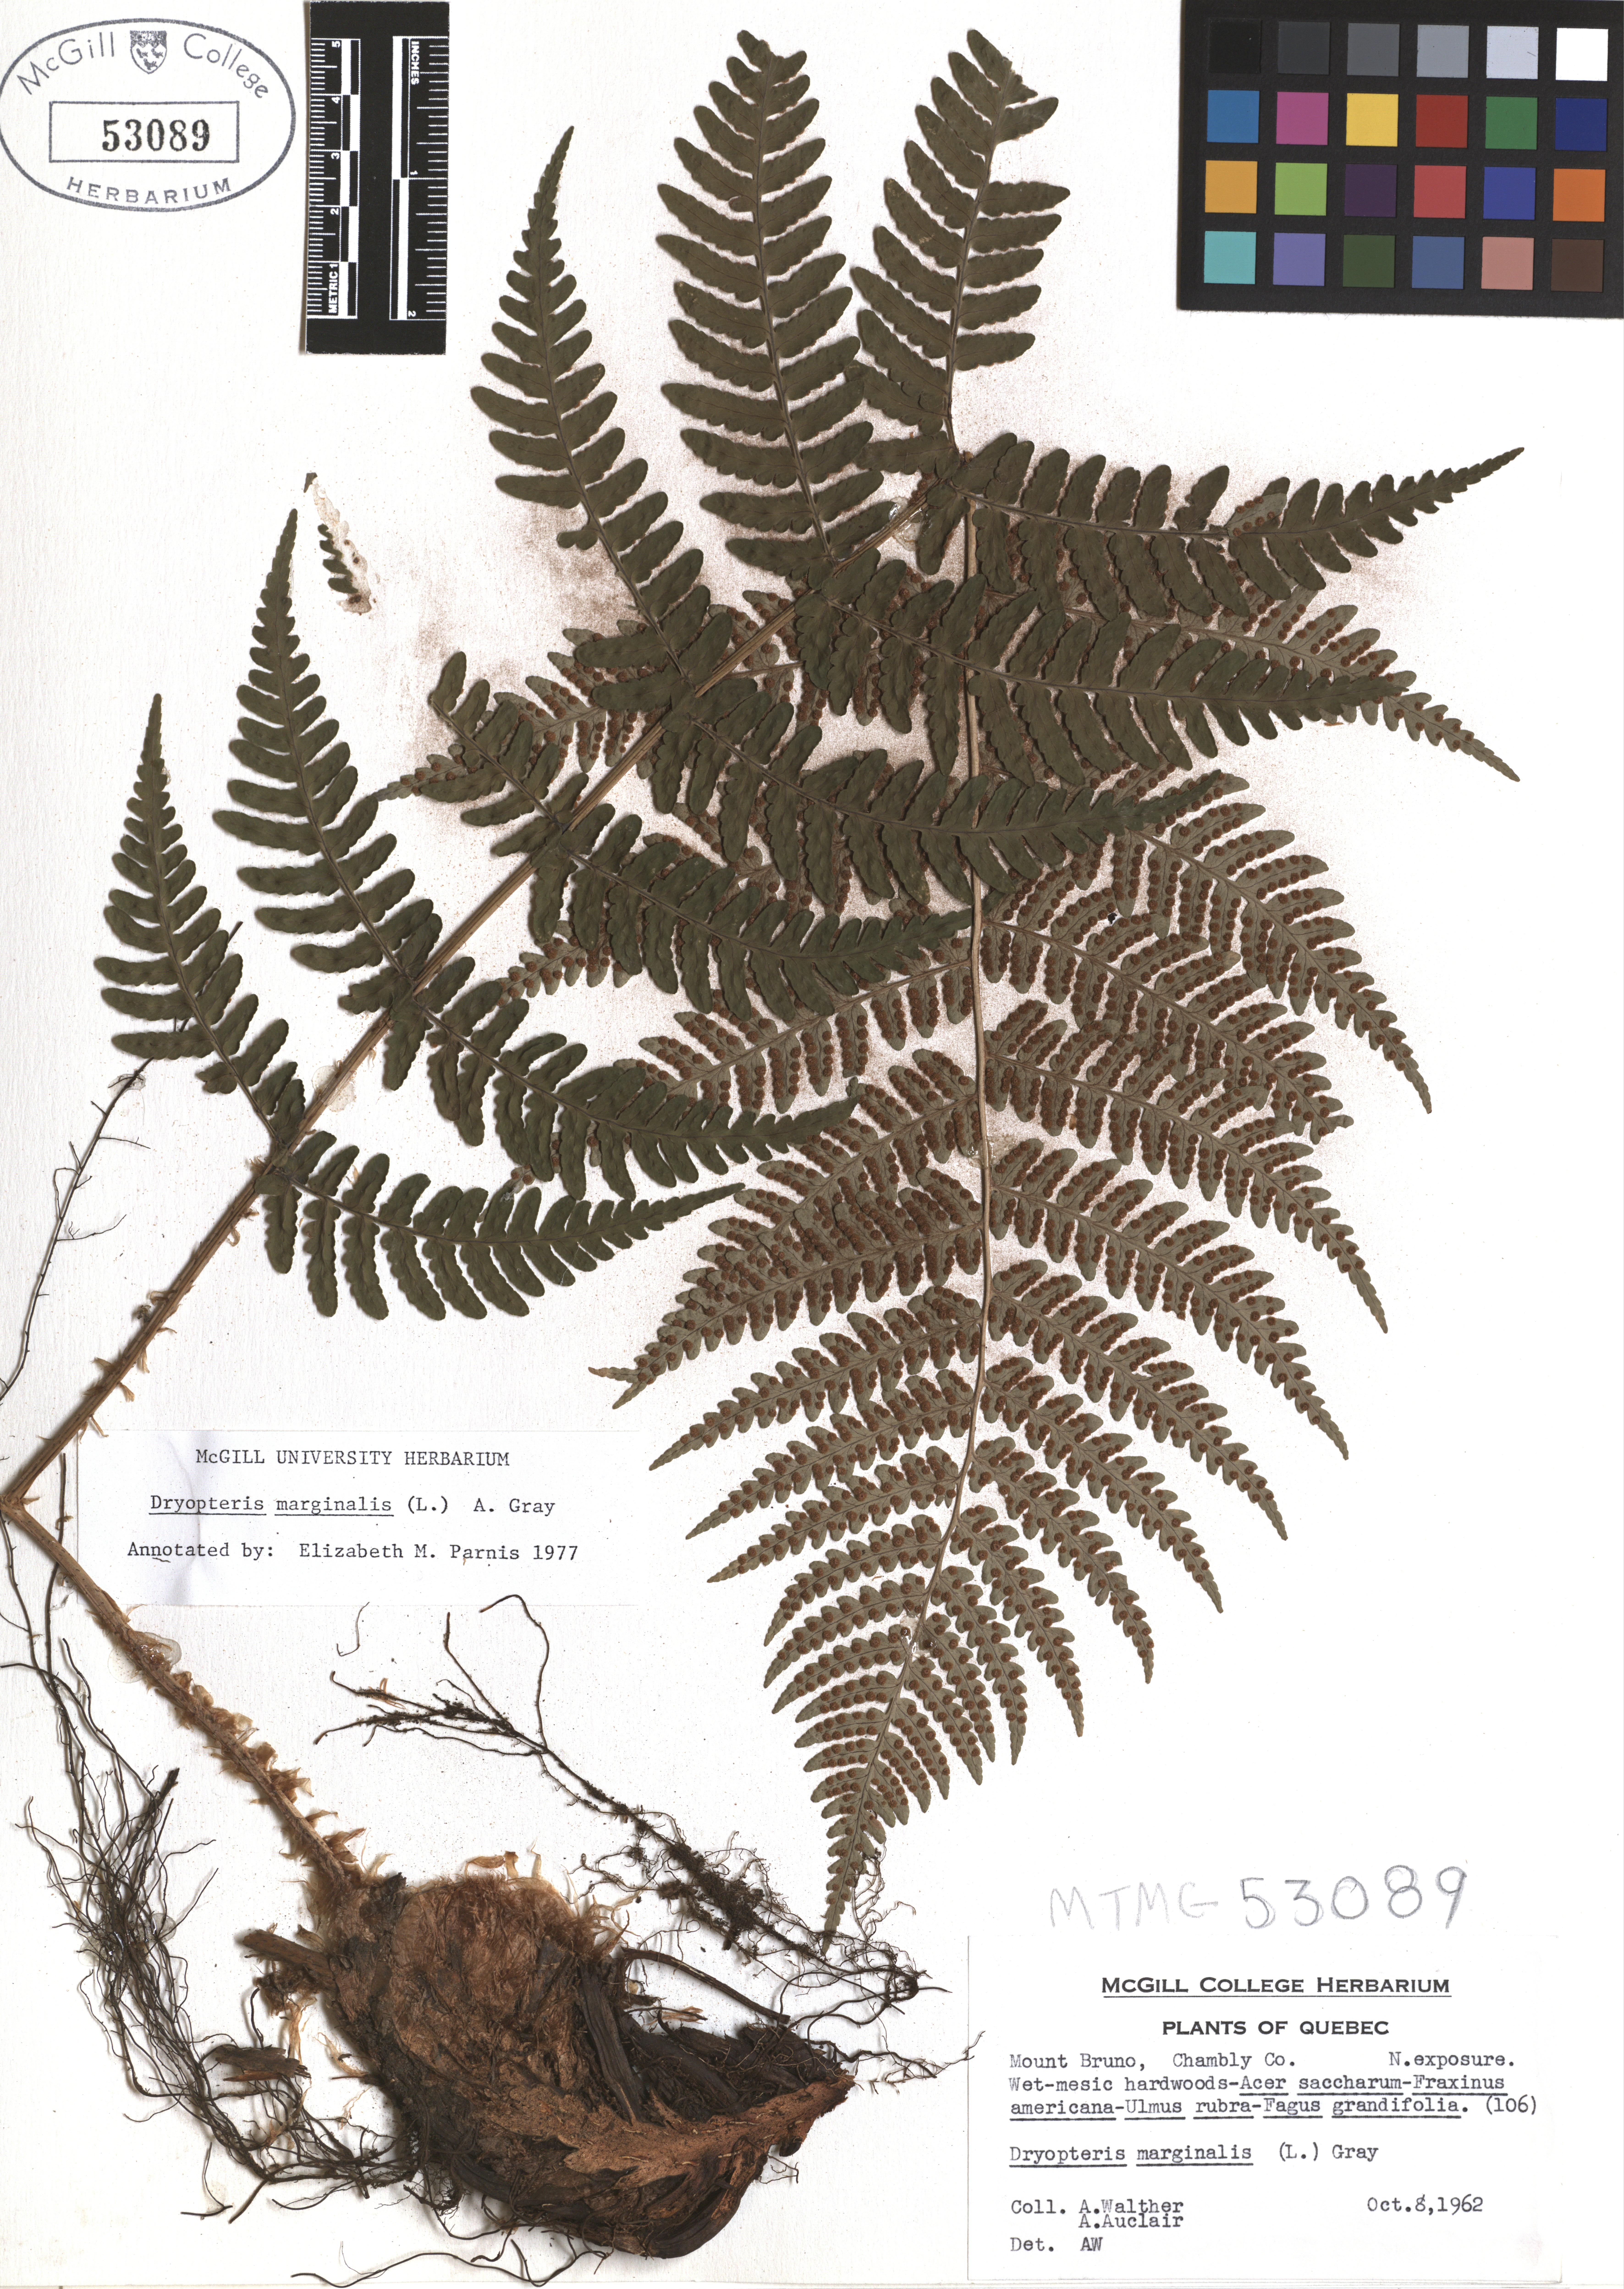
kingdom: Plantae
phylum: Tracheophyta
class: Polypodiopsida
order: Polypodiales
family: Dryopteridaceae
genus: Dryopteris
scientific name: Dryopteris marginalis
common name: Marginal wood fern
